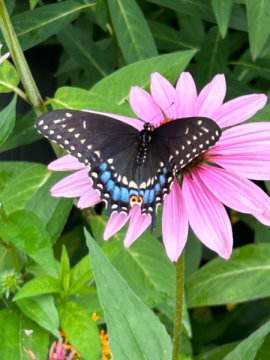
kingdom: Animalia
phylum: Arthropoda
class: Insecta
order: Lepidoptera
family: Papilionidae
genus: Papilio
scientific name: Papilio polyxenes
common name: Black Swallowtail
